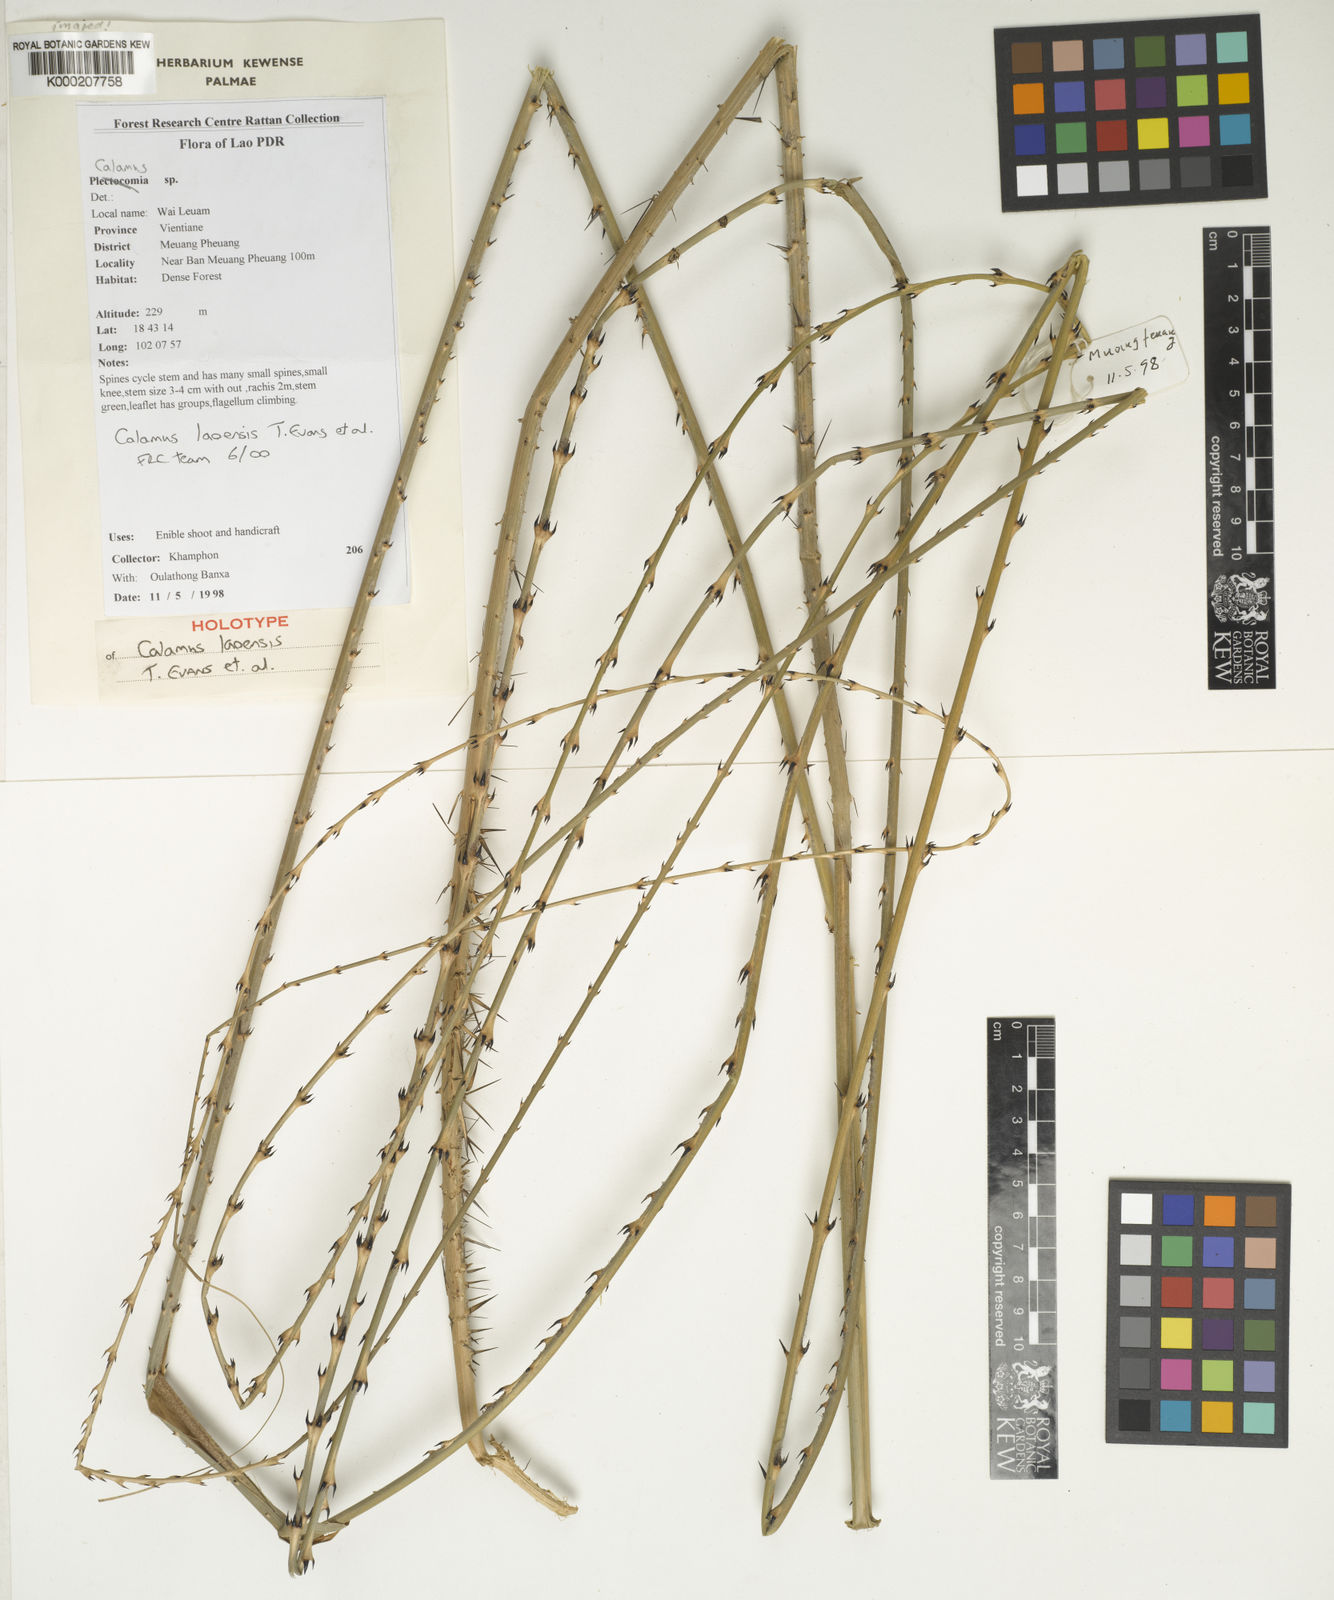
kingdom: Plantae
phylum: Tracheophyta
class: Liliopsida
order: Arecales
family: Arecaceae
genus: Calamus
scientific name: Calamus
